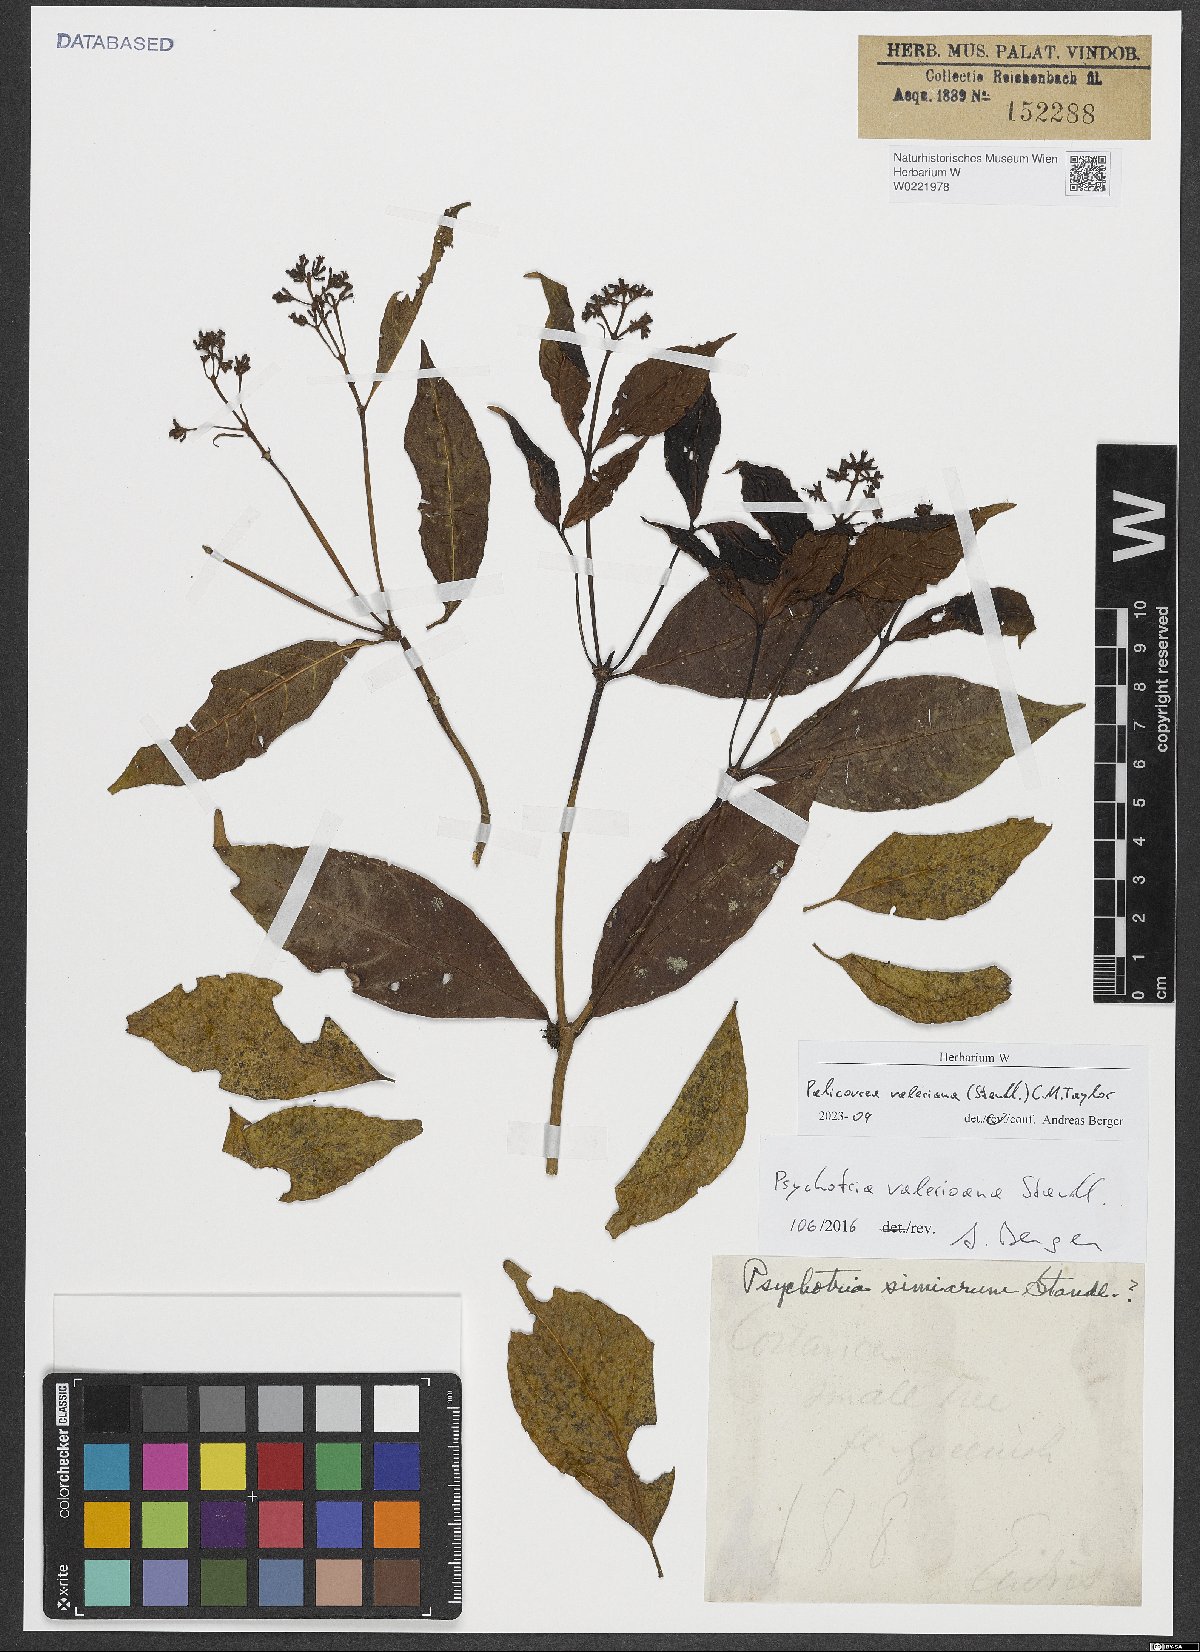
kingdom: Plantae
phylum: Tracheophyta
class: Magnoliopsida
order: Gentianales
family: Rubiaceae
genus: Palicourea
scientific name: Palicourea valeriana
